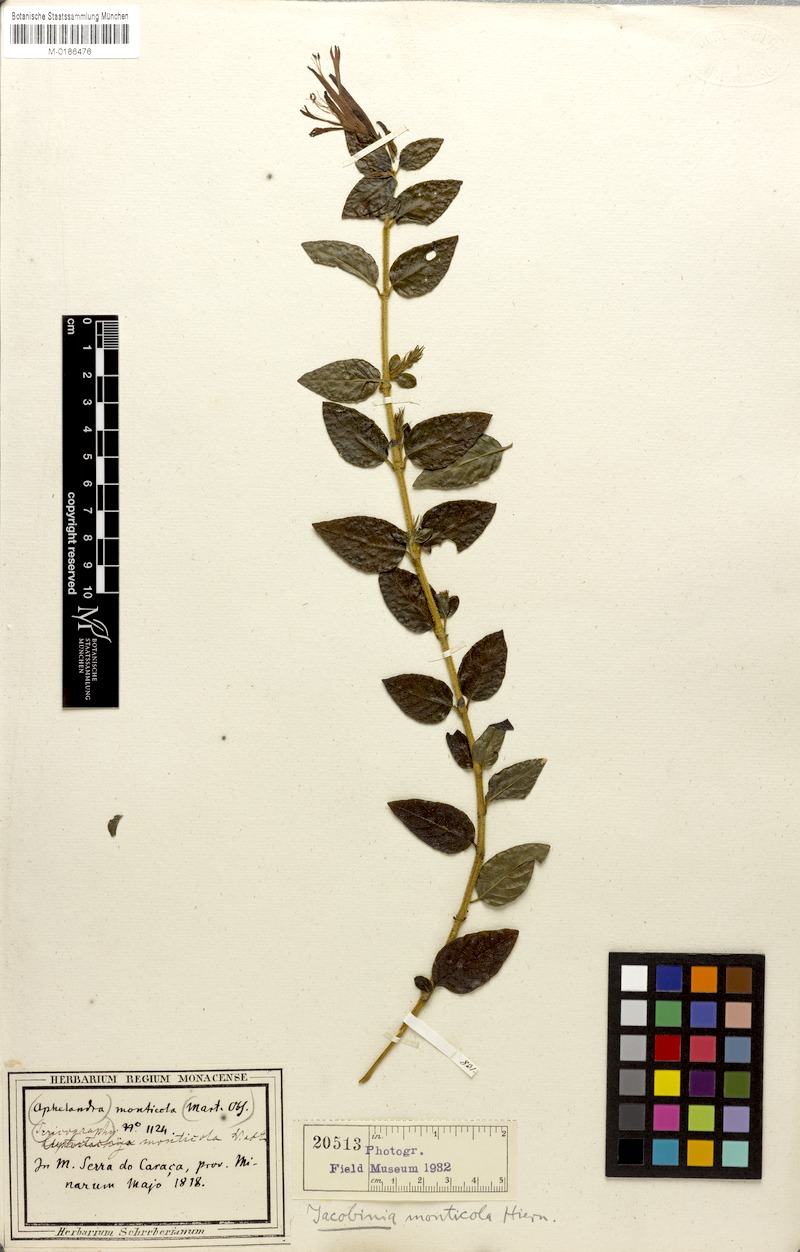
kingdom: Plantae
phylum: Tracheophyta
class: Magnoliopsida
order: Lamiales
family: Acanthaceae
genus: Justicia
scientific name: Justicia monticola
